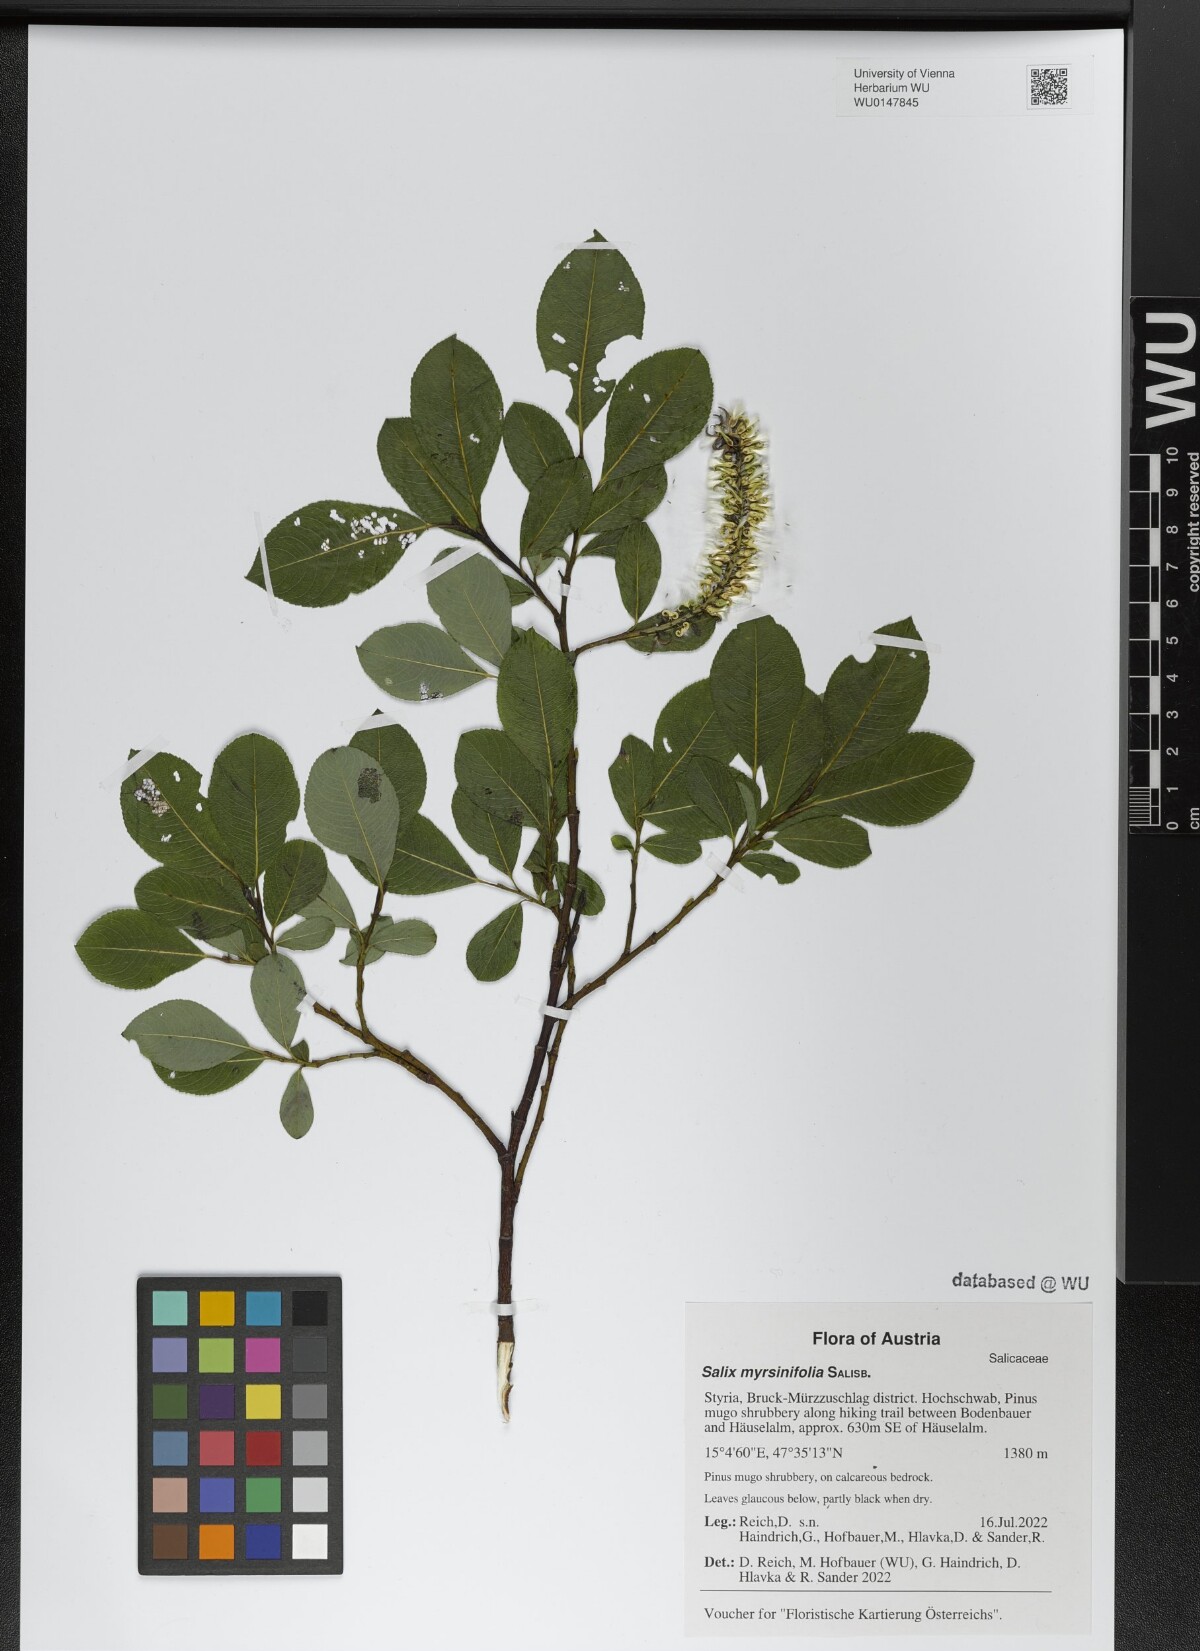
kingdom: Plantae
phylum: Tracheophyta
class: Magnoliopsida
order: Malpighiales
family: Salicaceae
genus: Salix
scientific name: Salix myrsinifolia
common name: Dark-leaved willow
